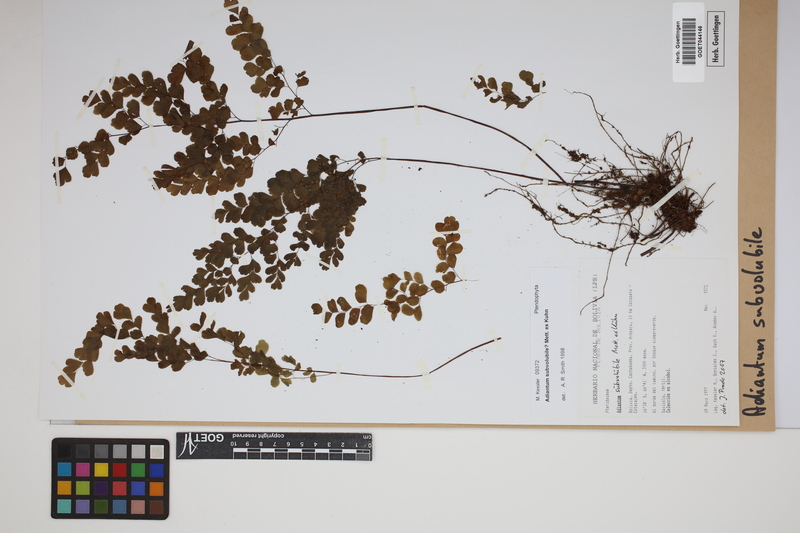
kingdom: Plantae
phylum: Tracheophyta
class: Polypodiopsida
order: Polypodiales
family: Pteridaceae
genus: Adiantum
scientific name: Adiantum subvolubile
